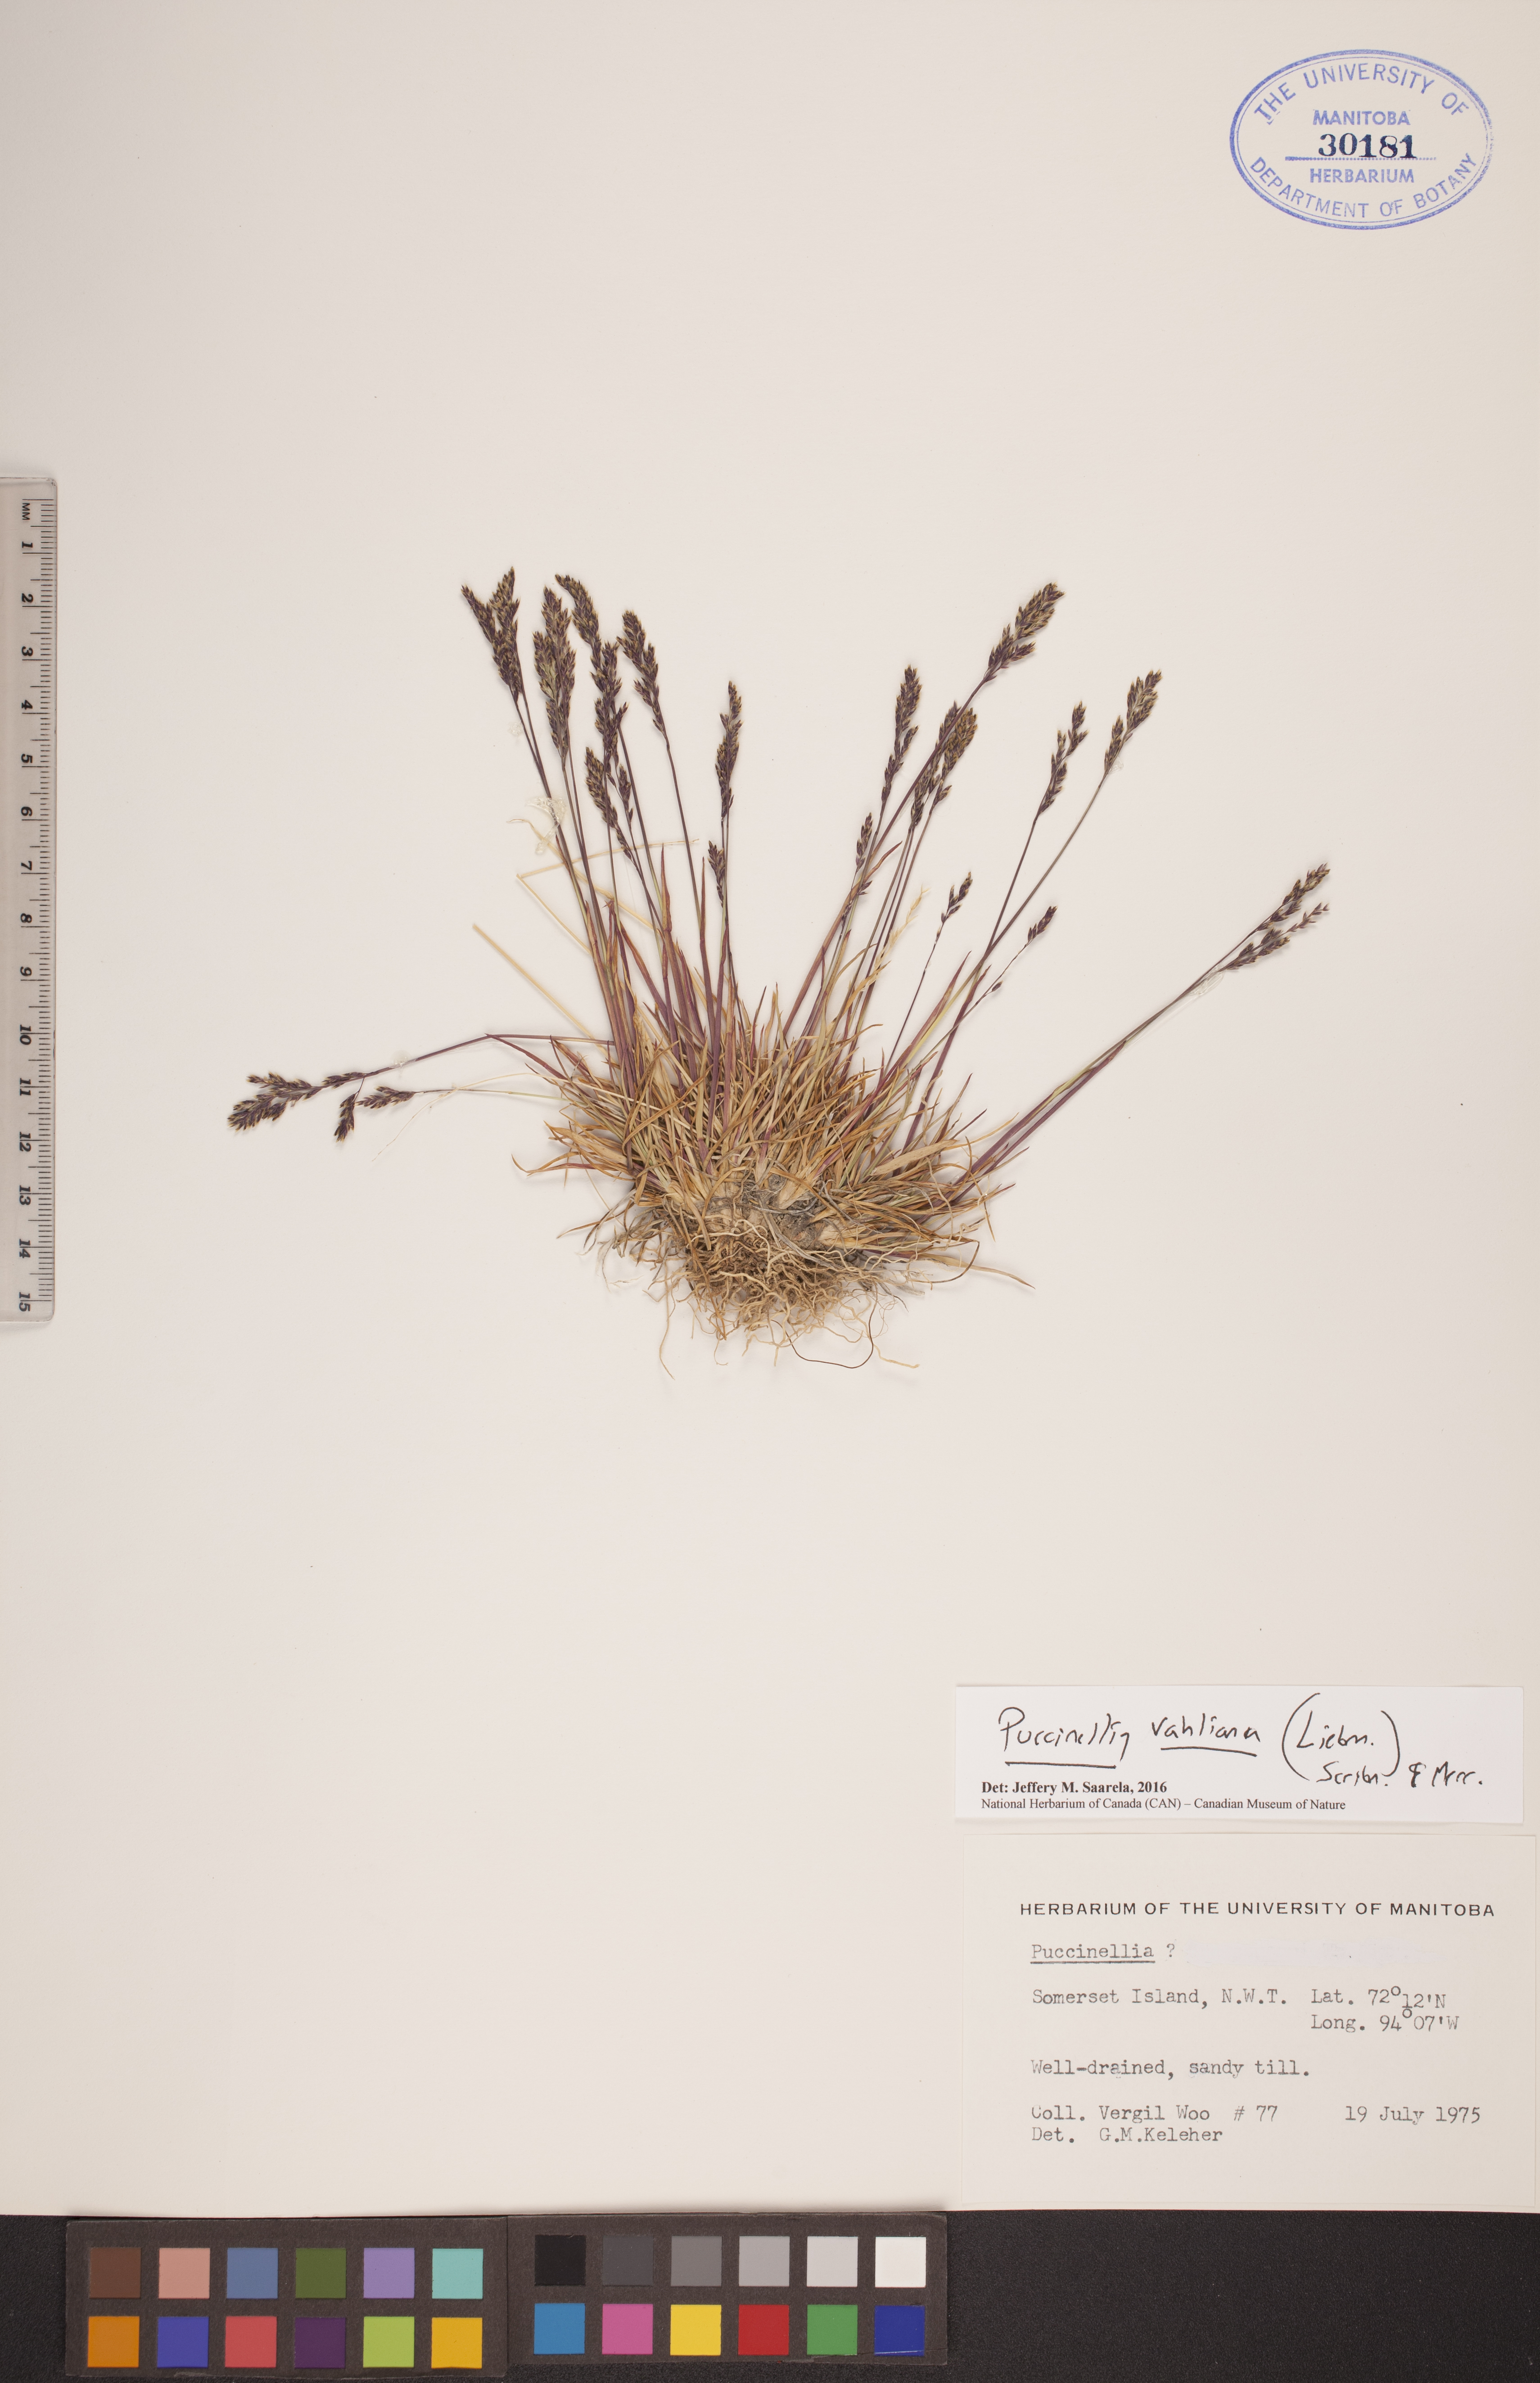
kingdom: Plantae
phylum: Tracheophyta
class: Liliopsida
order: Poales
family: Poaceae
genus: Puccinellia
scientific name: Puccinellia vahliana
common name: Vahl's alkaligrass
